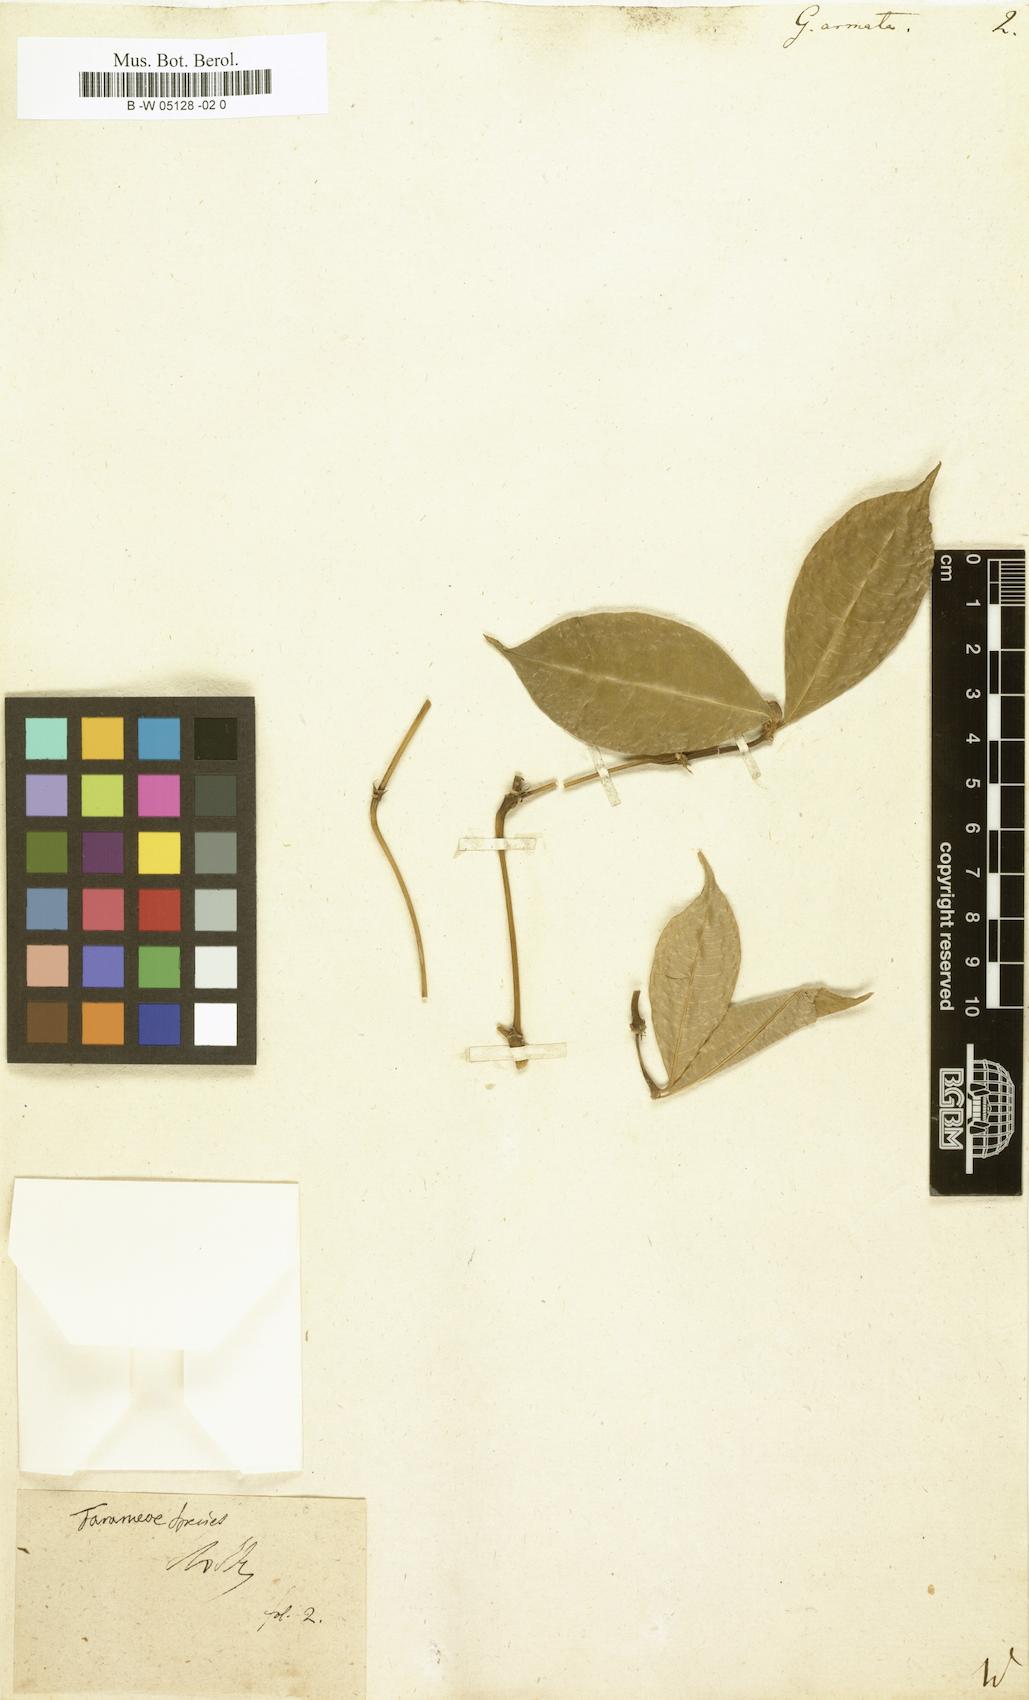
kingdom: Plantae
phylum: Tracheophyta
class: Magnoliopsida
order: Gentianales
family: Rubiaceae
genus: Randia
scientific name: Randia
